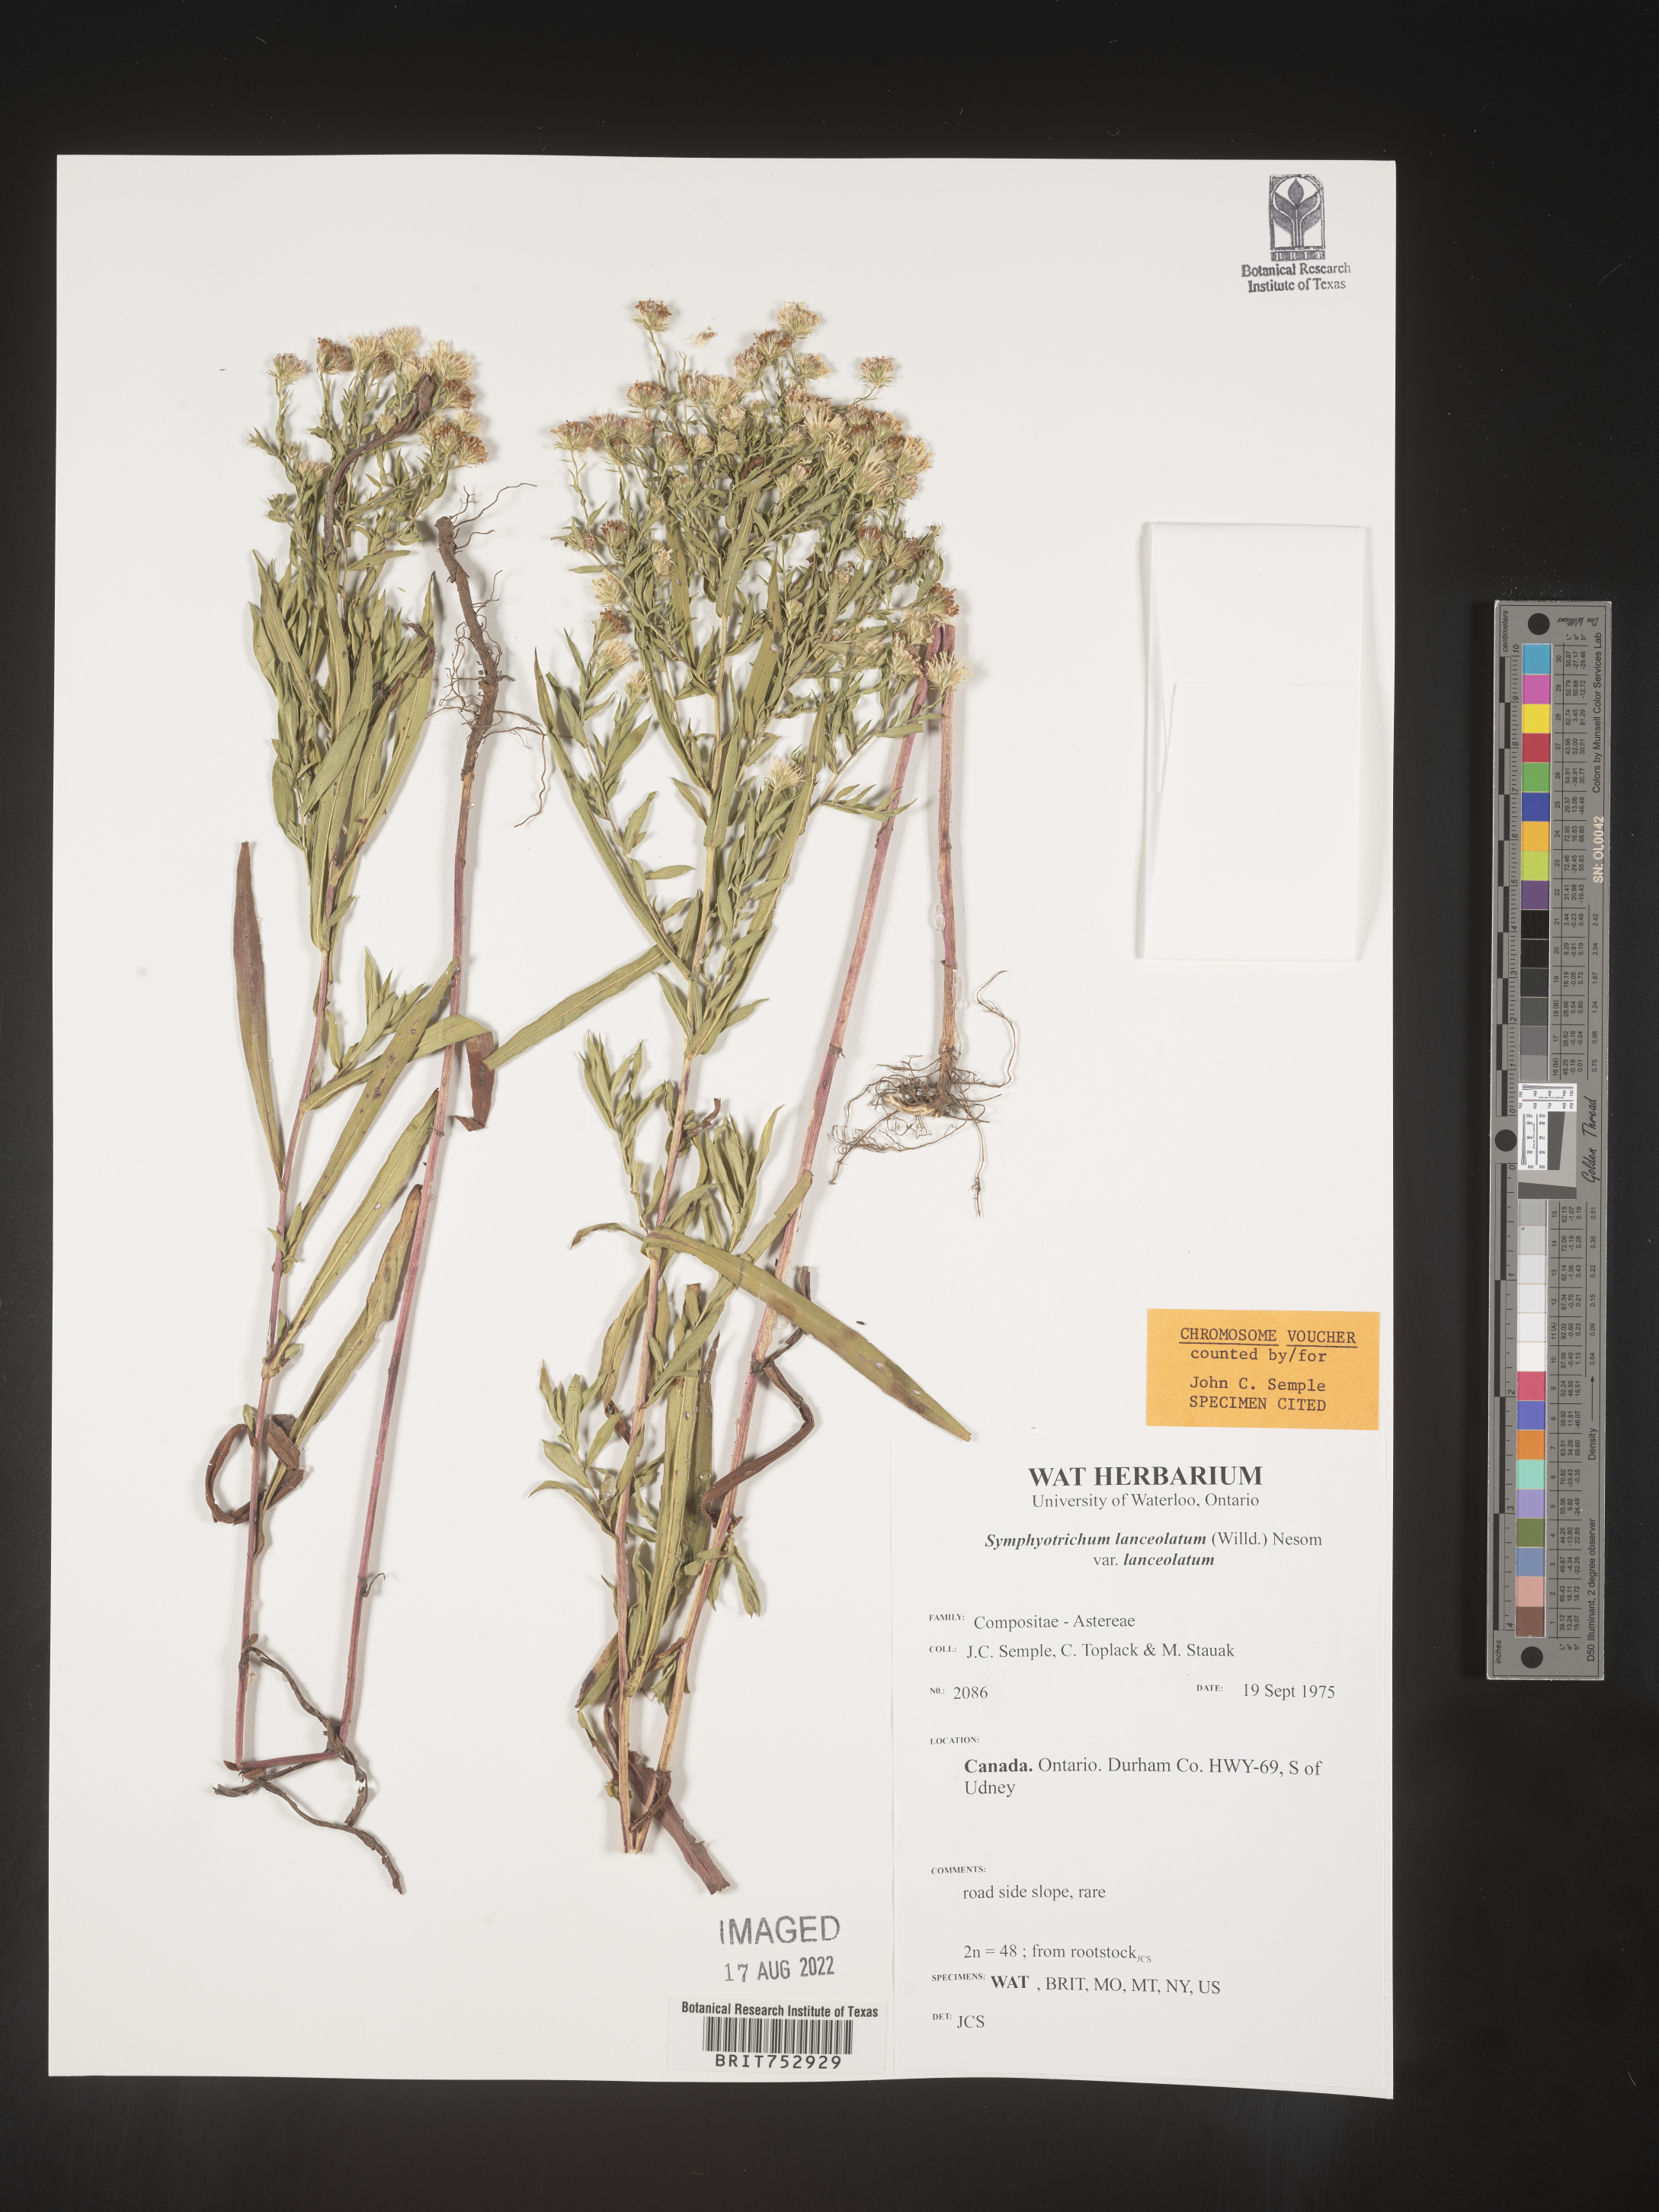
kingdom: Plantae
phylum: Tracheophyta
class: Magnoliopsida
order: Asterales
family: Asteraceae
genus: Symphyotrichum
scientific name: Symphyotrichum lanceolatum
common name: Panicled aster
